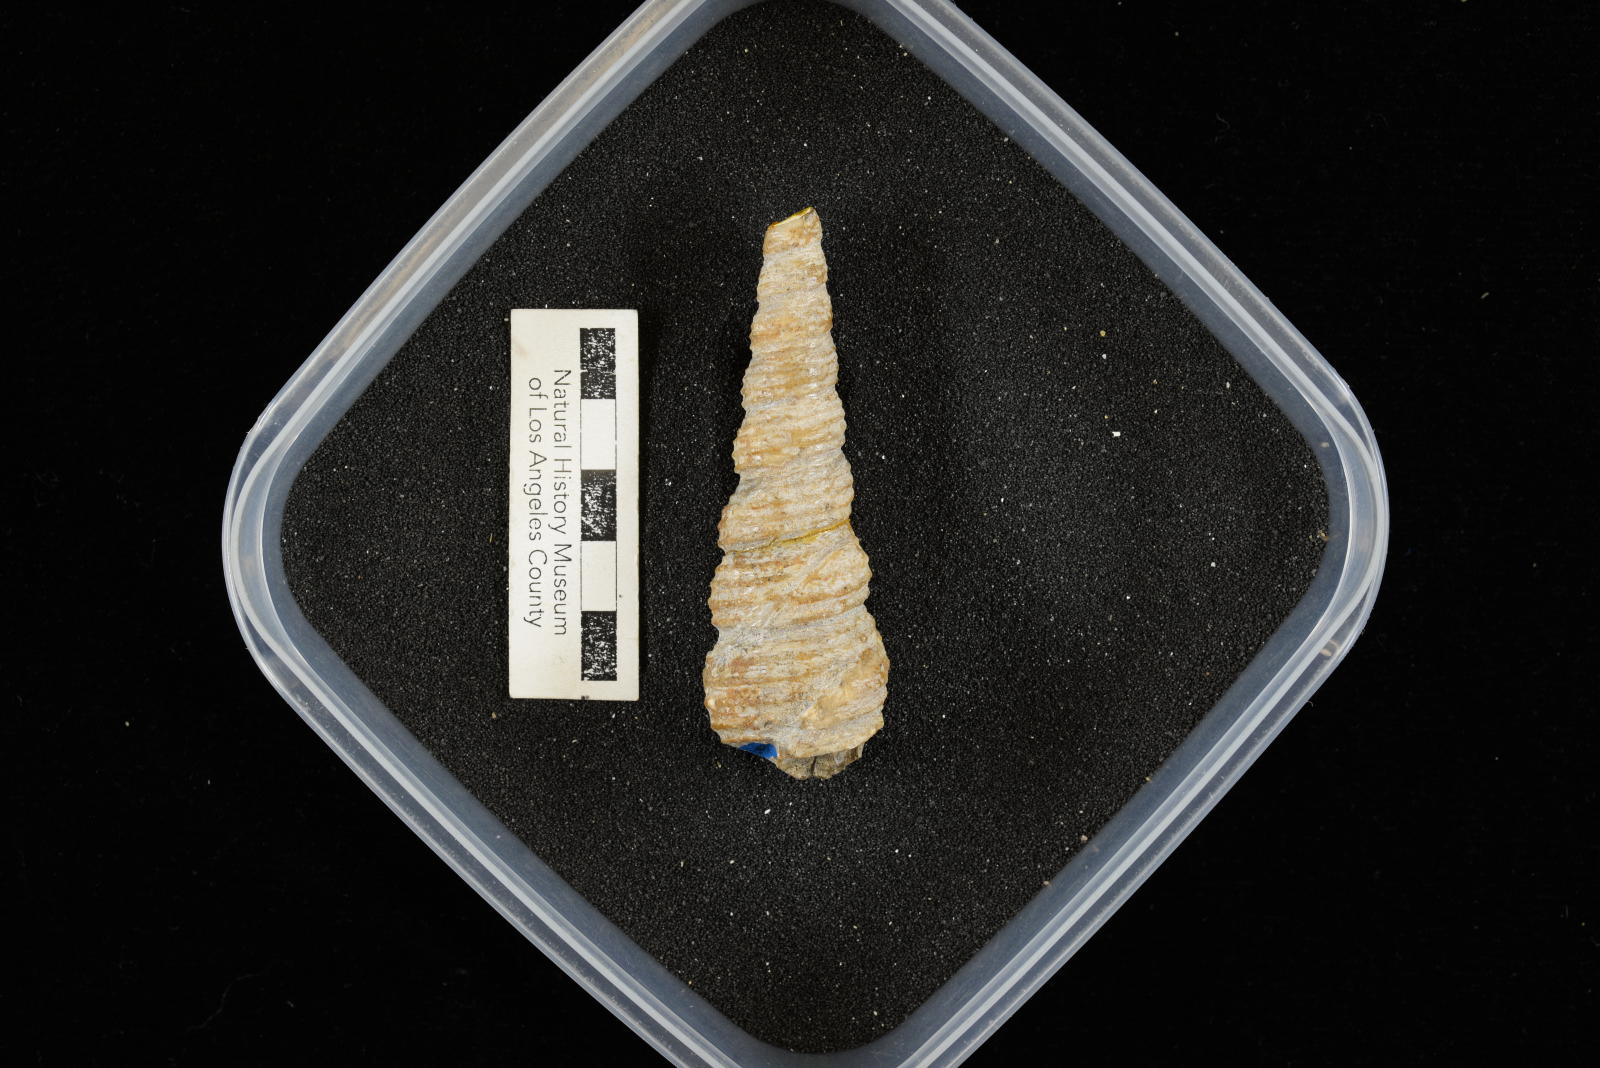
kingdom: Animalia
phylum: Mollusca
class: Gastropoda
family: Turritellidae
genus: Turritella
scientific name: Turritella chicoensis
